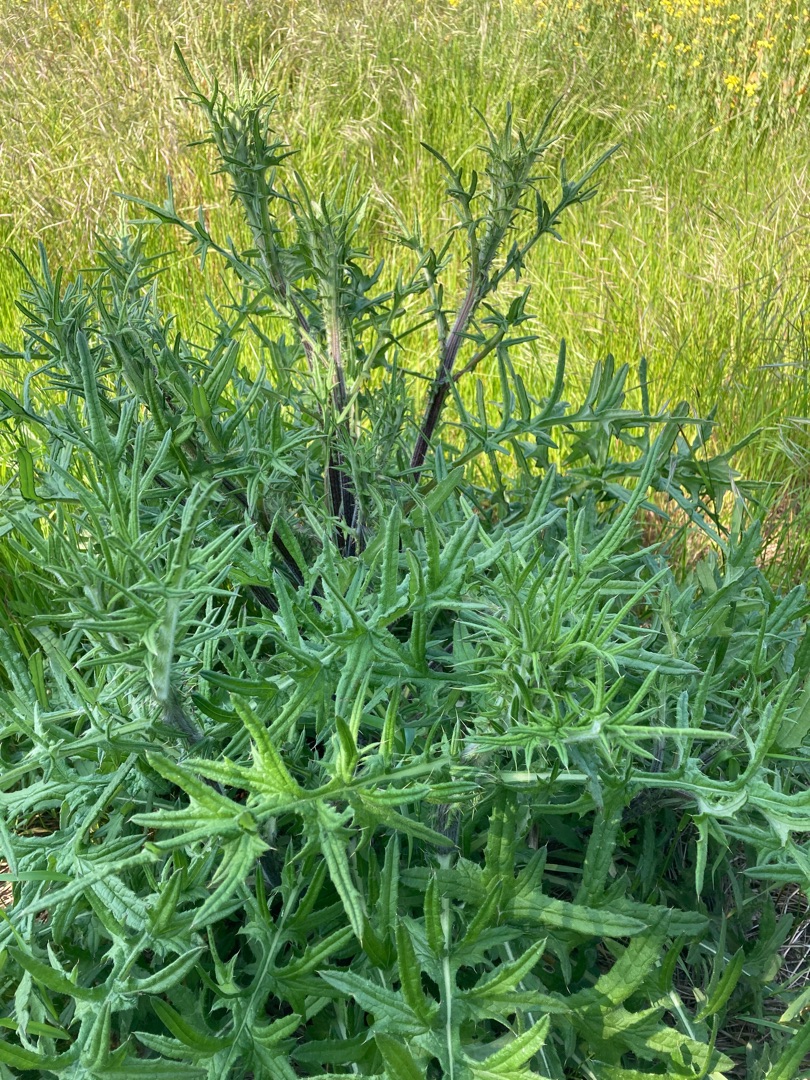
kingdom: Plantae
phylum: Tracheophyta
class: Magnoliopsida
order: Asterales
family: Asteraceae
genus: Cirsium
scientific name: Cirsium vulgare
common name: Horse-tidsel
